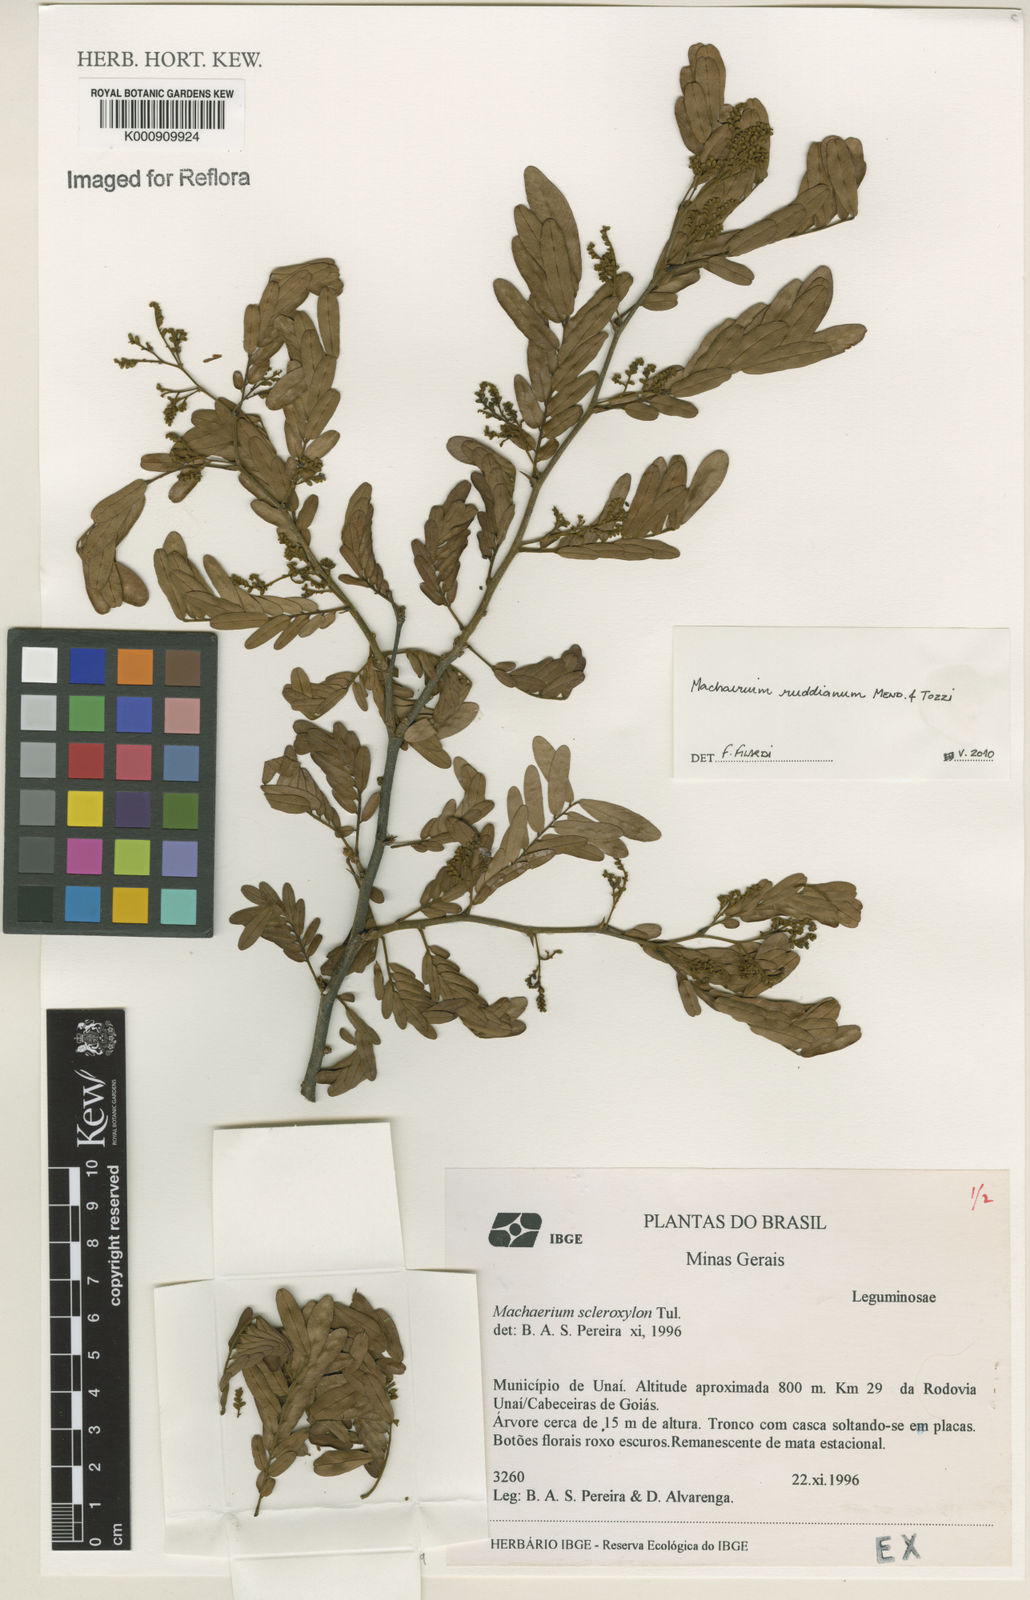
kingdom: Plantae
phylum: Tracheophyta
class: Magnoliopsida
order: Fabales
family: Fabaceae
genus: Machaerium
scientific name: Machaerium
